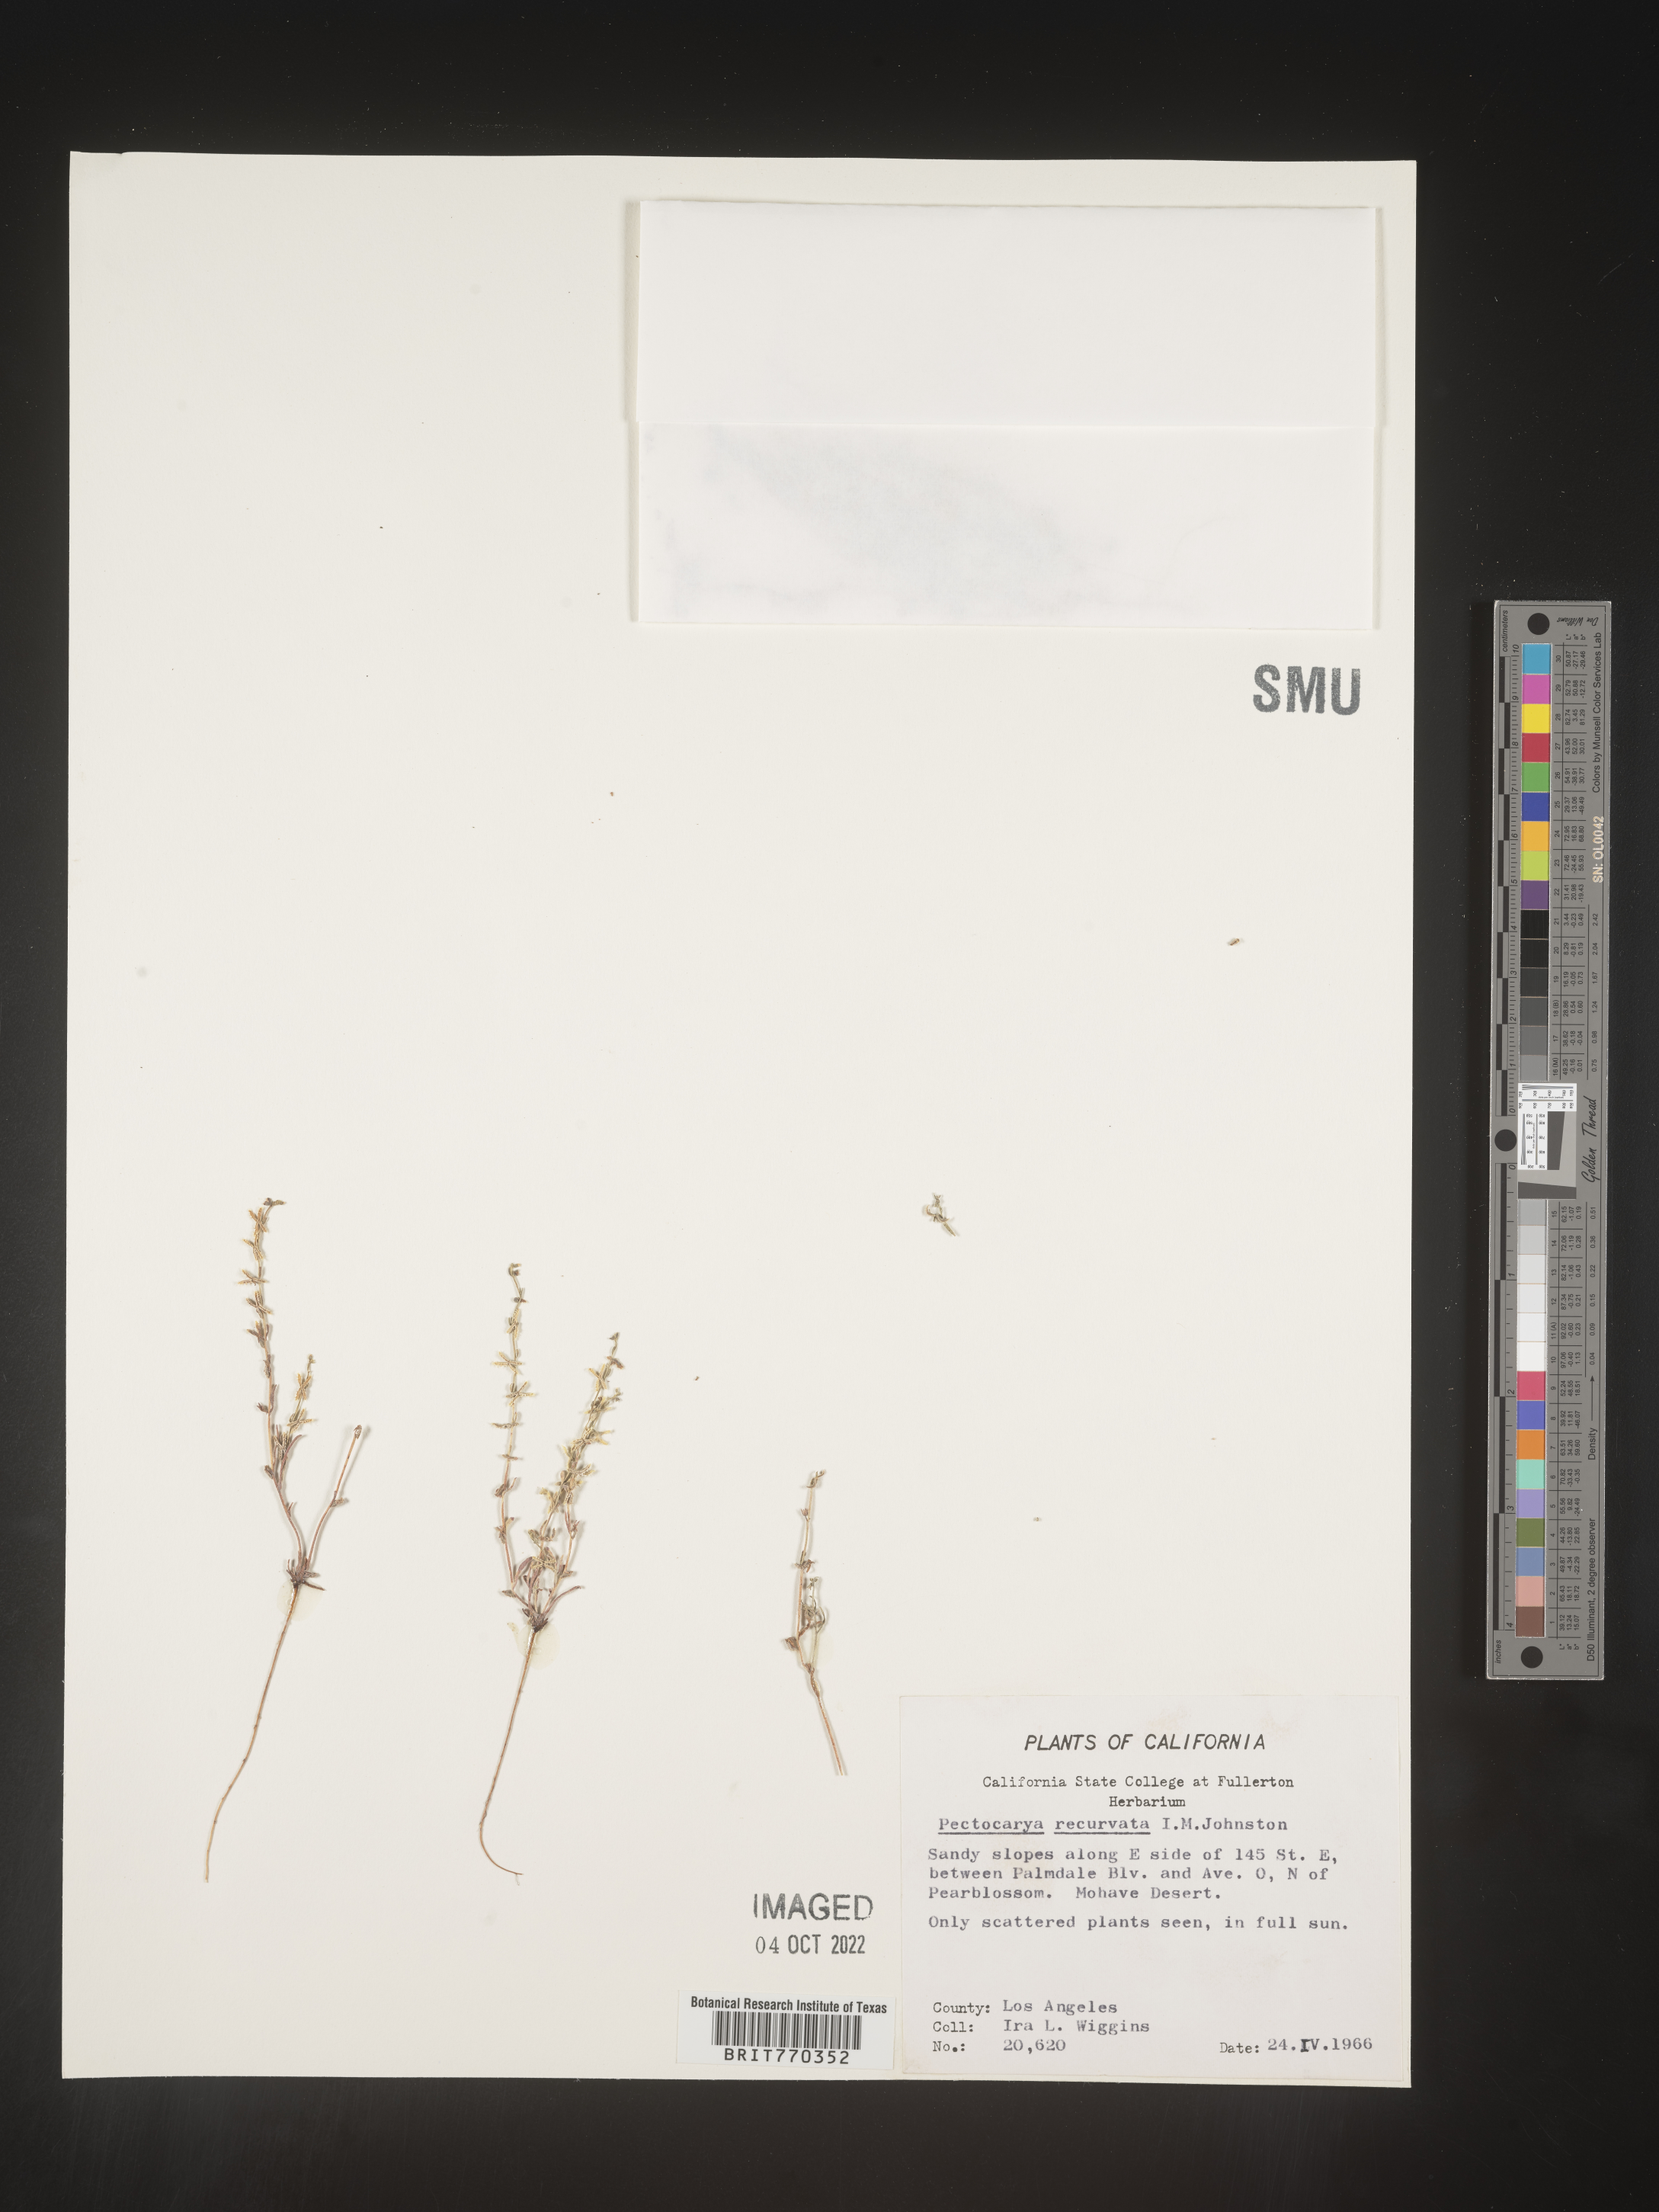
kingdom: Plantae
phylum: Tracheophyta
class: Magnoliopsida
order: Boraginales
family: Boraginaceae
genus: Pectocarya
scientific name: Pectocarya
